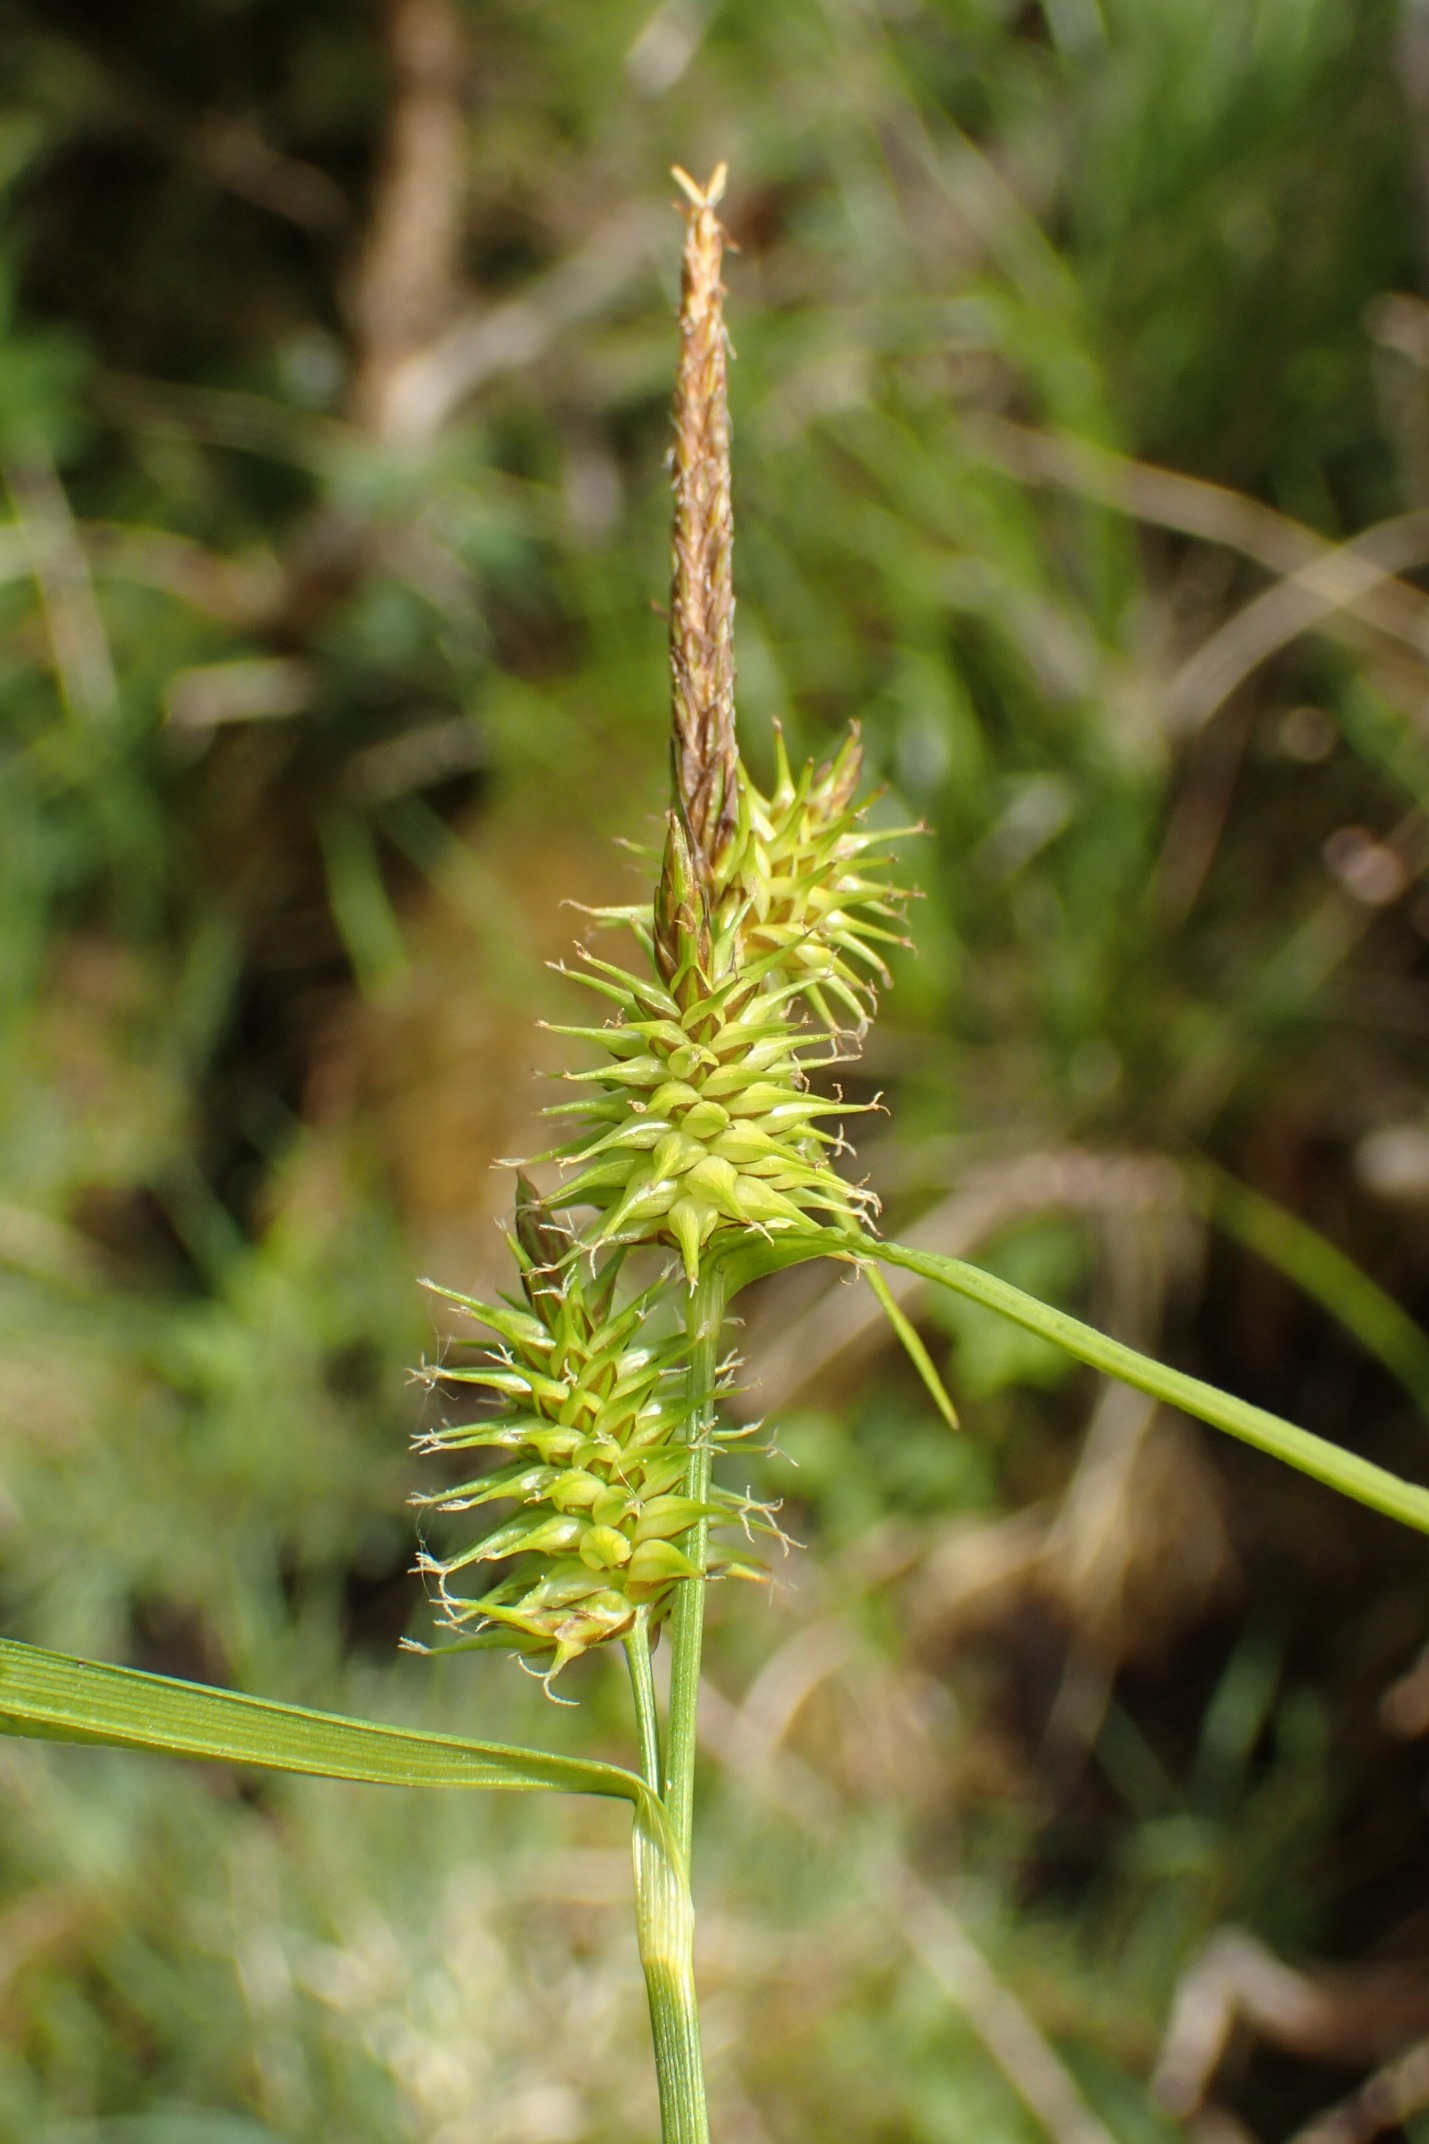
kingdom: Plantae
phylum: Tracheophyta
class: Liliopsida
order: Poales
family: Cyperaceae
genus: Carex
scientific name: Carex flava
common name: Gul star
